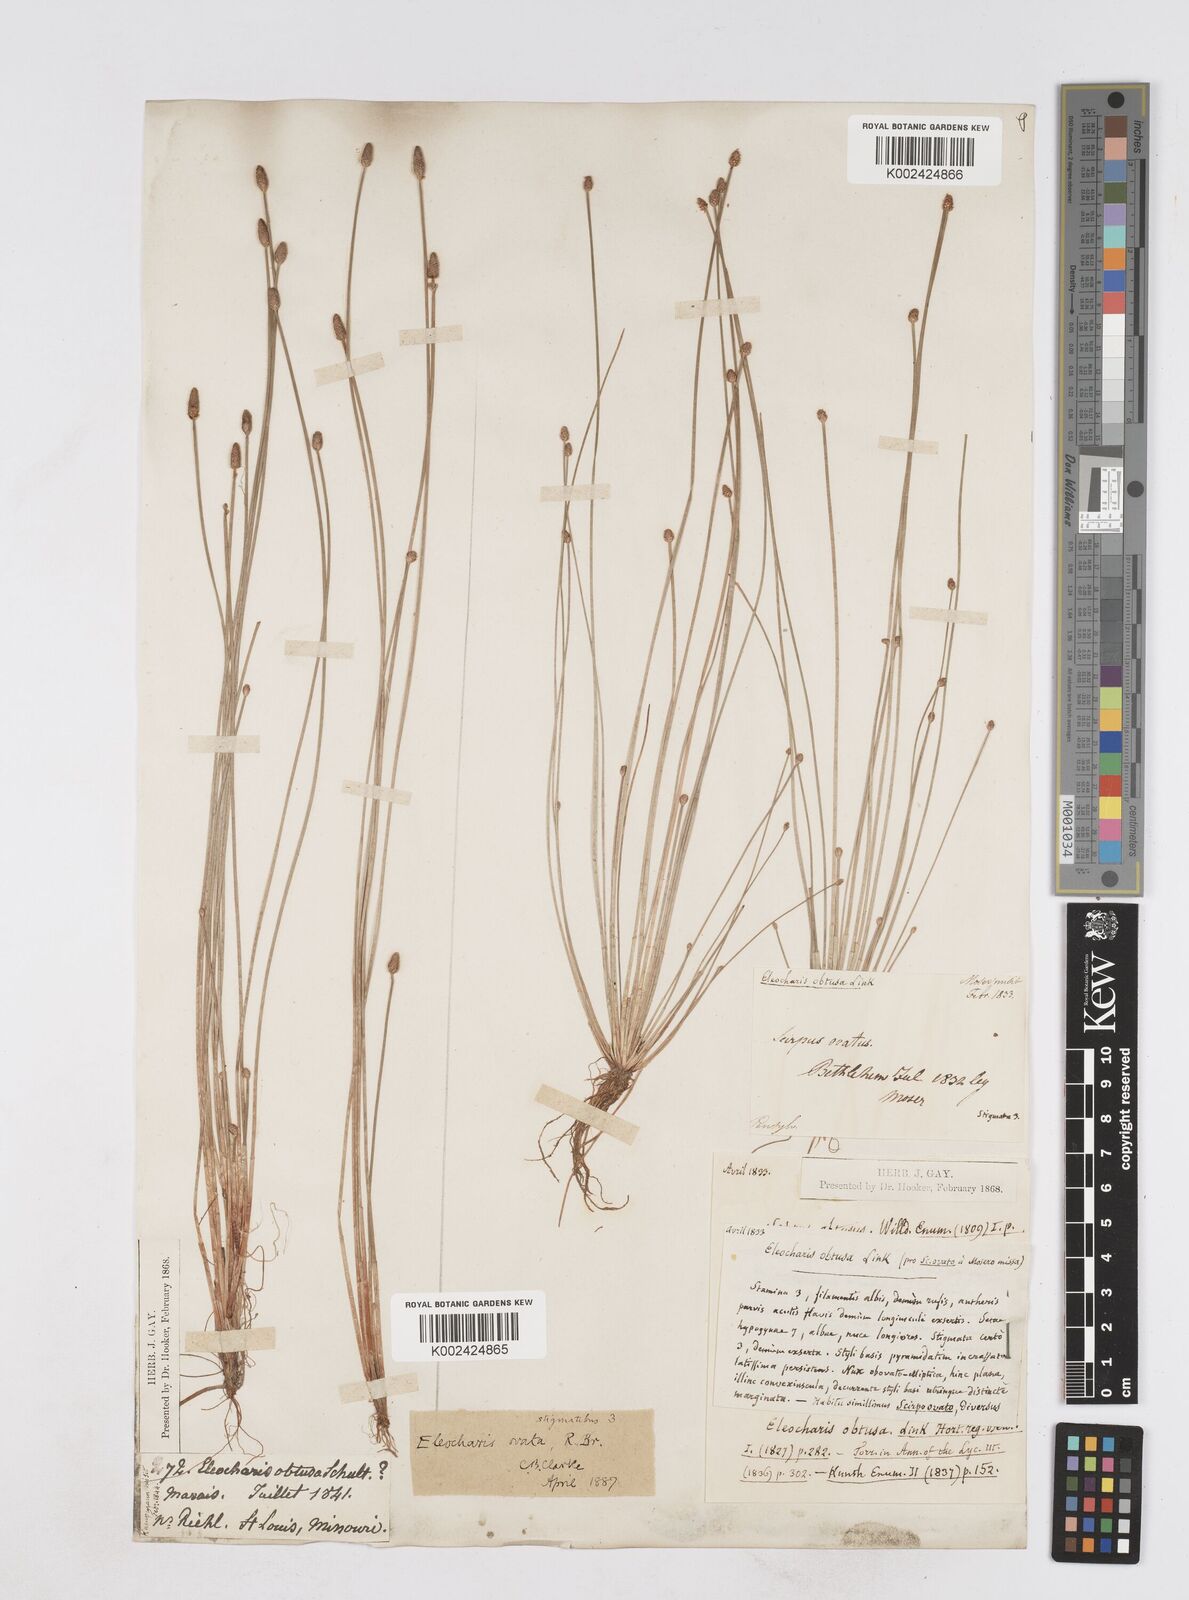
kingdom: Plantae
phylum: Tracheophyta
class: Liliopsida
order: Poales
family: Cyperaceae
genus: Eleocharis
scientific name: Eleocharis obtusa
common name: Blunt spikerush
